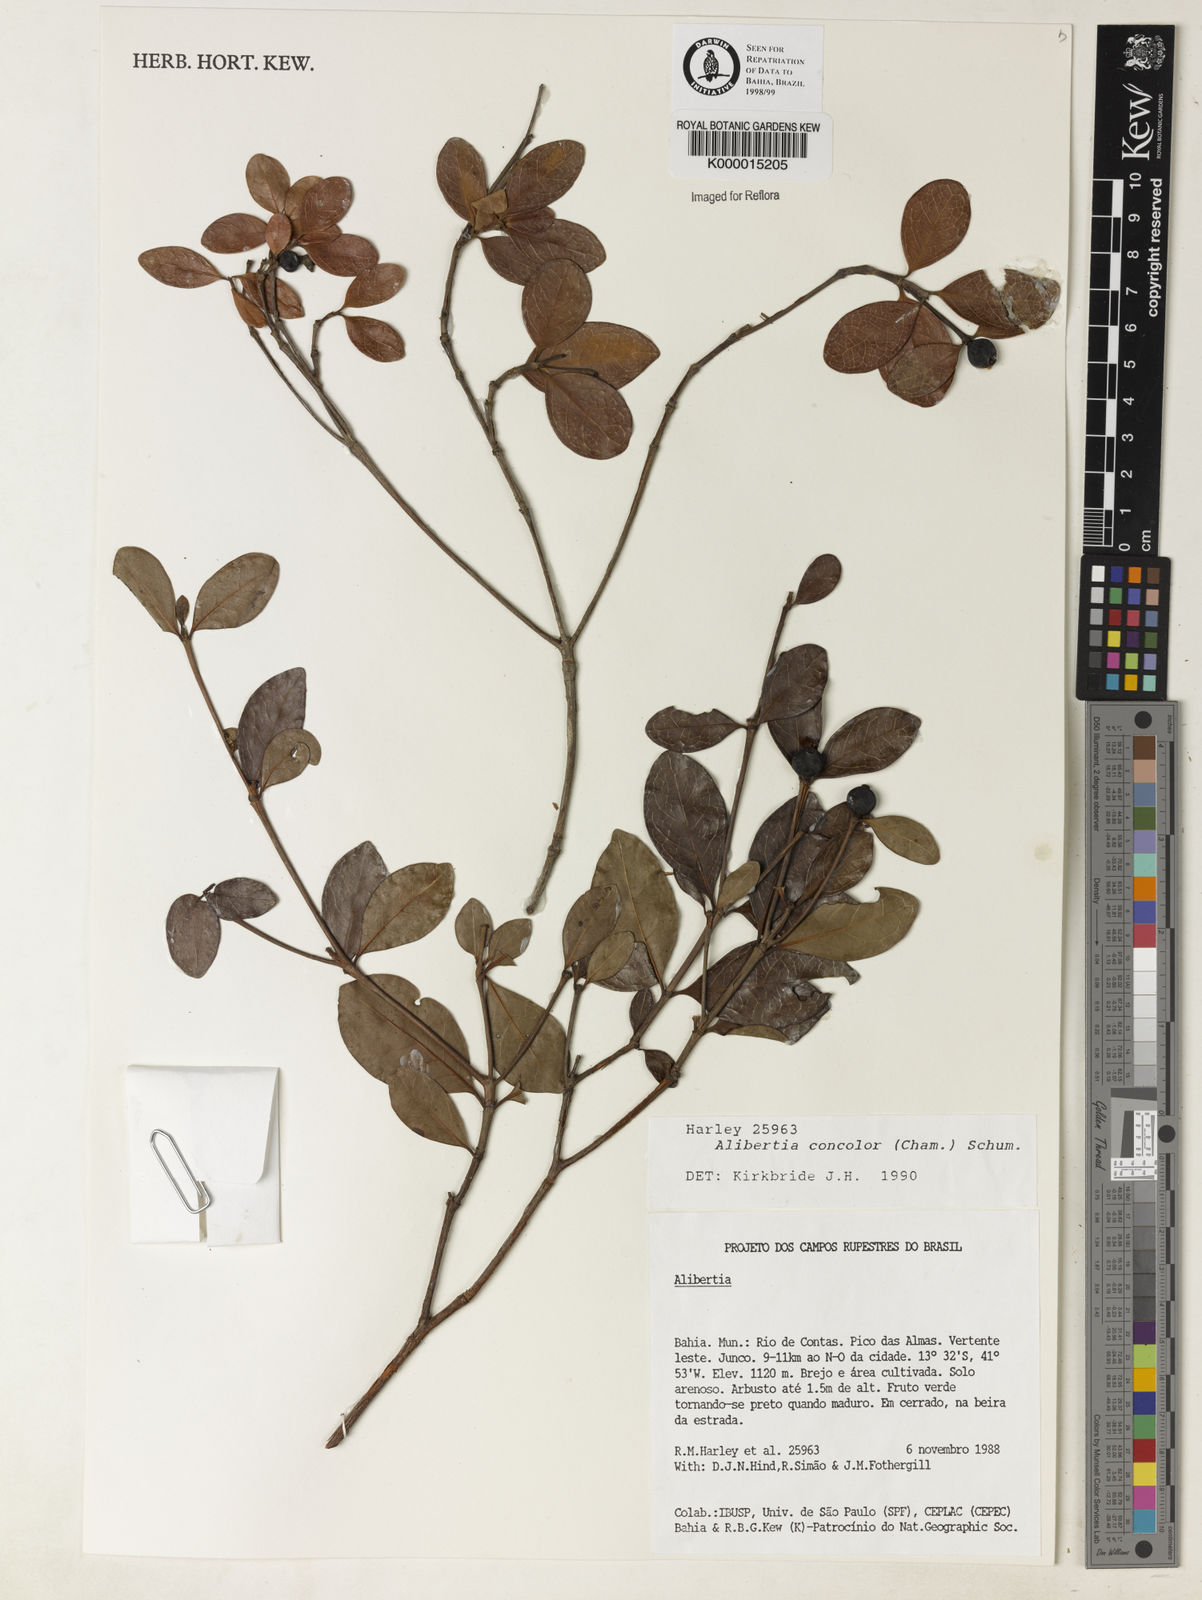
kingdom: Plantae
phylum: Tracheophyta
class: Magnoliopsida
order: Gentianales
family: Rubiaceae
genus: Cordiera
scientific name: Cordiera concolor
